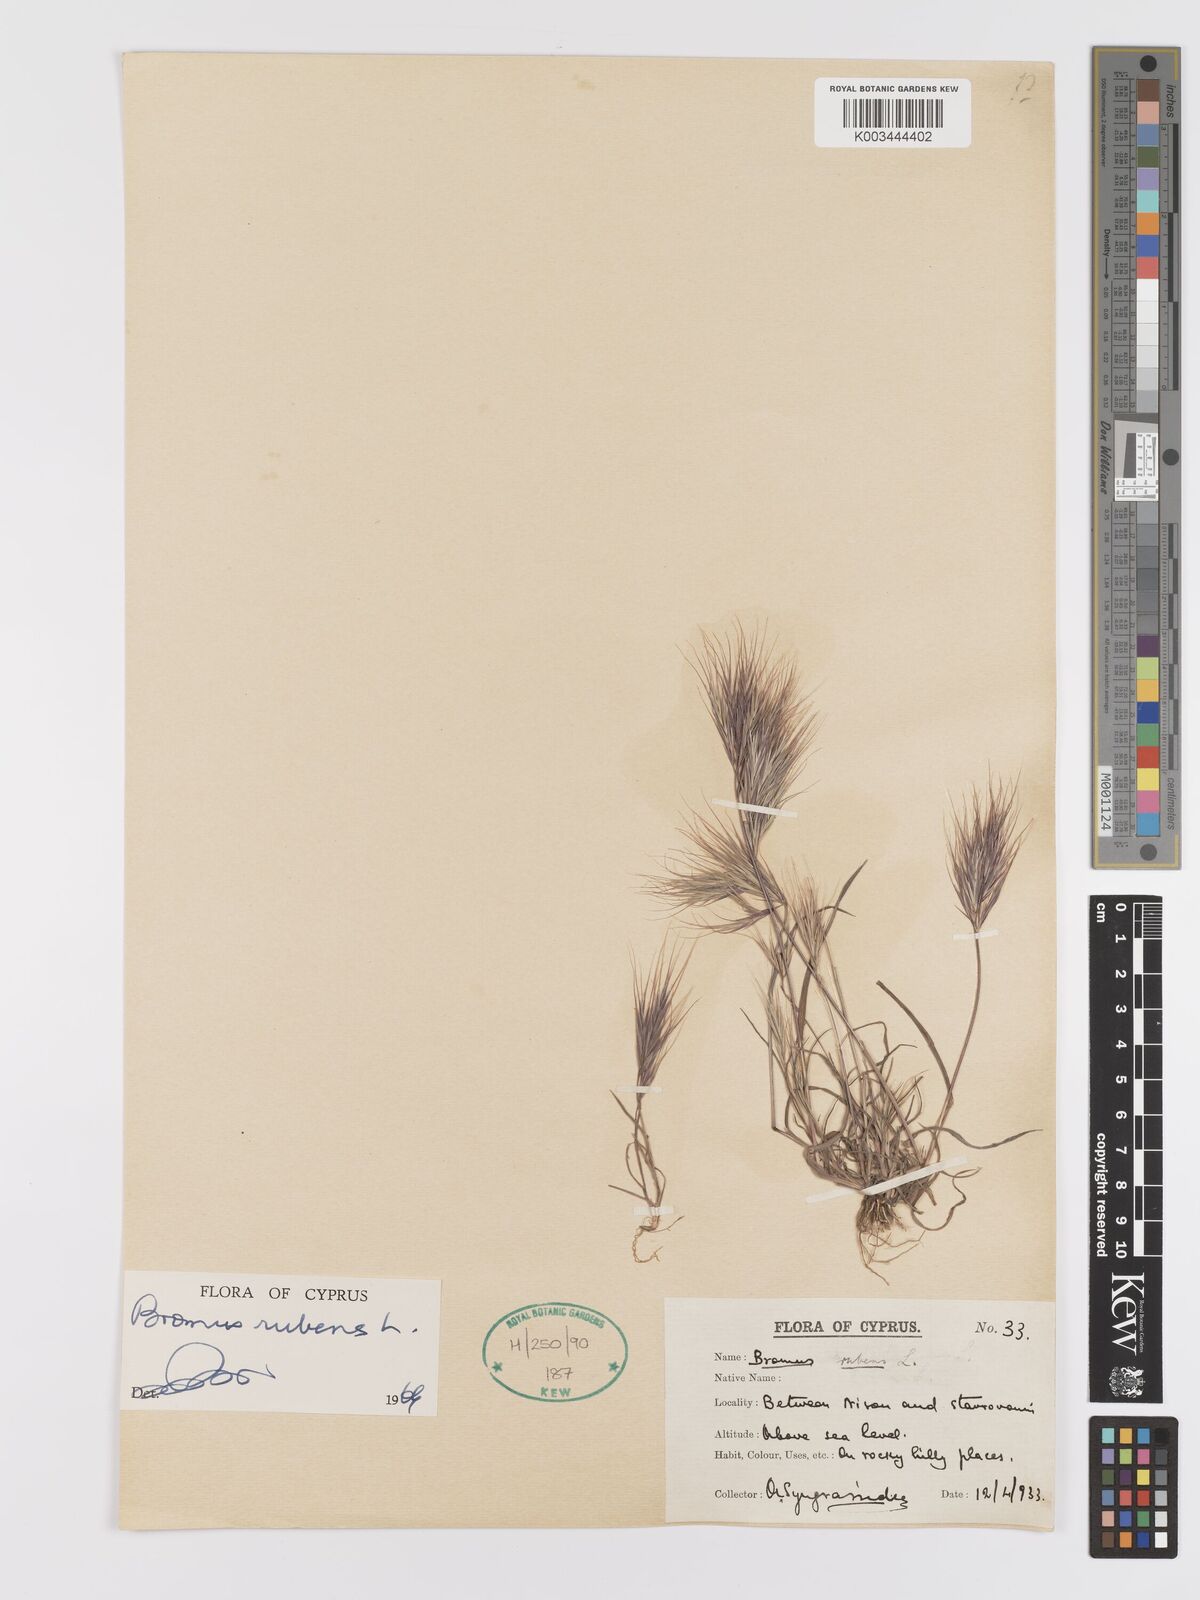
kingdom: Plantae
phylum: Tracheophyta
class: Liliopsida
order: Poales
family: Poaceae
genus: Bromus
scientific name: Bromus rubens
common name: Red brome
